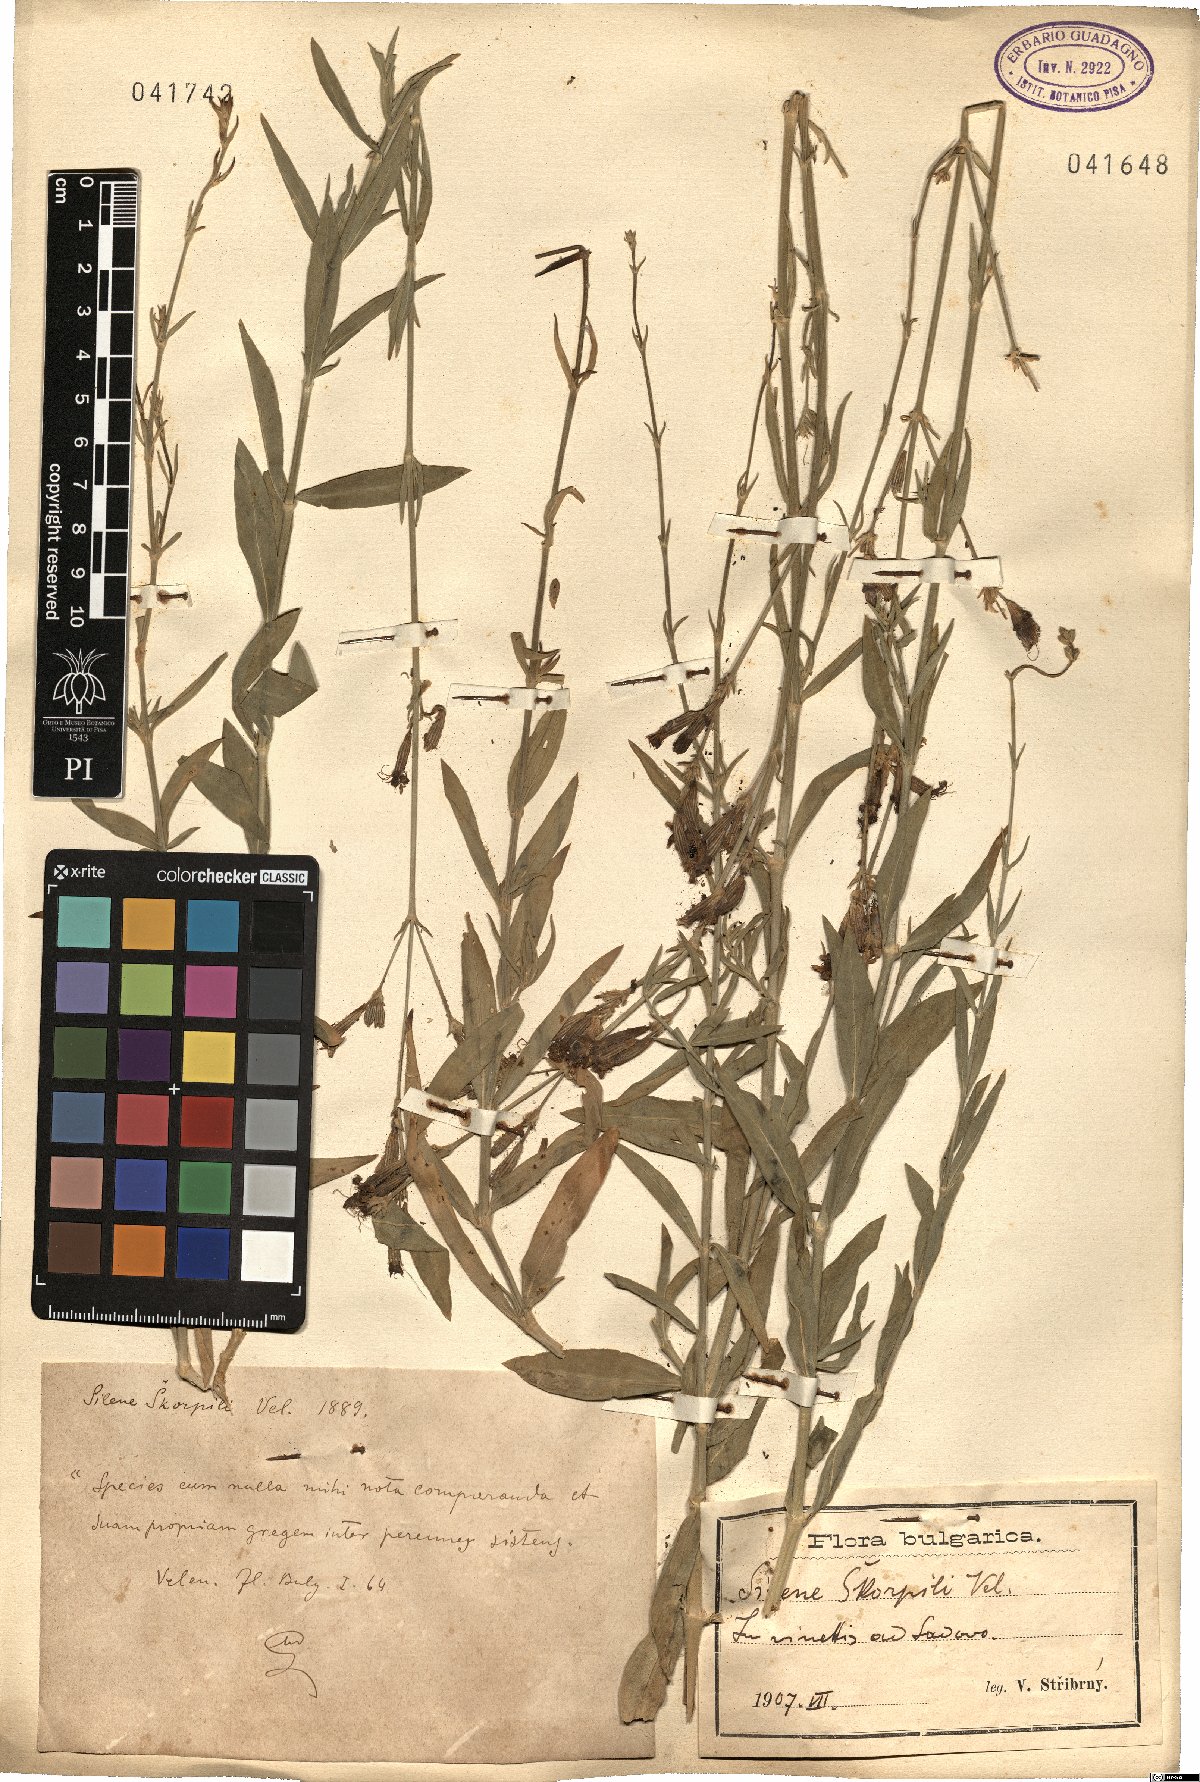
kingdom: Plantae
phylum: Tracheophyta
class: Magnoliopsida
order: Caryophyllales
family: Caryophyllaceae
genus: Silene
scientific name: Silene skorpilii
